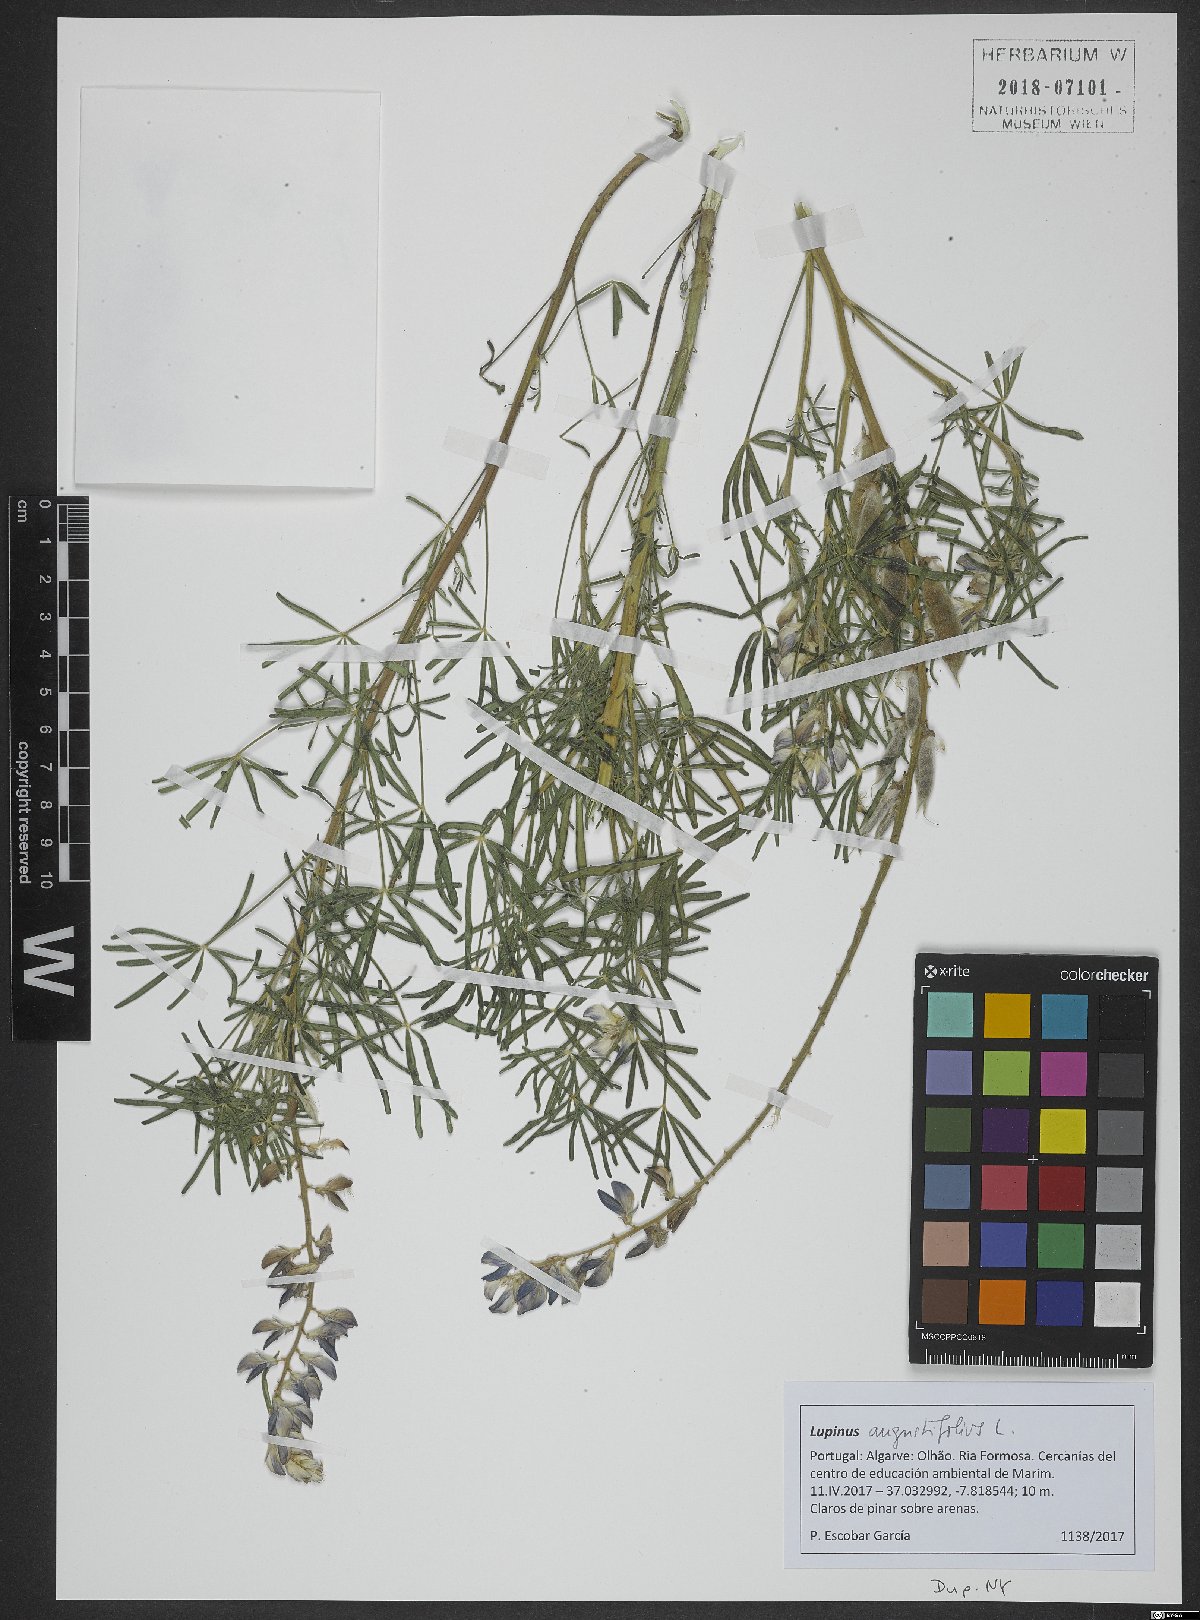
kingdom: Plantae
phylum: Tracheophyta
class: Magnoliopsida
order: Fabales
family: Fabaceae
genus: Lupinus
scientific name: Lupinus angustifolius
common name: Narrow-leaved lupin
